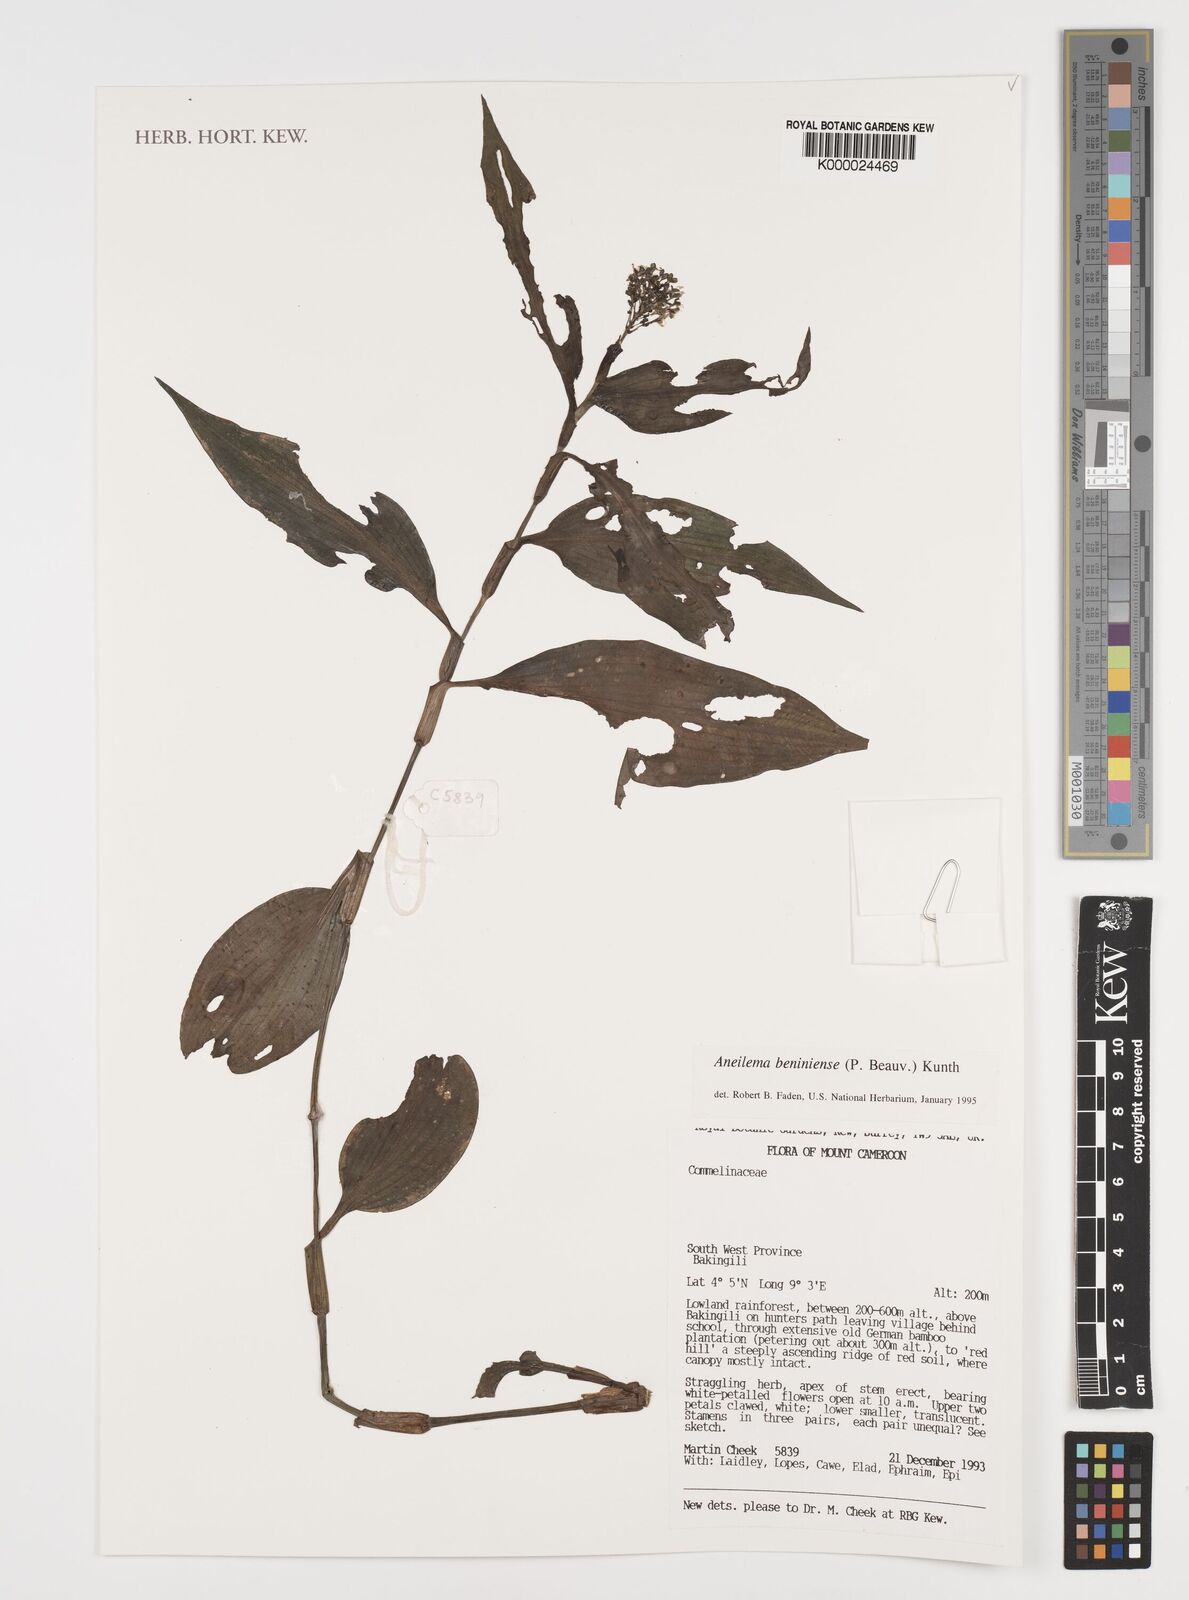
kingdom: Plantae
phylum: Tracheophyta
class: Liliopsida
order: Commelinales
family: Commelinaceae
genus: Aneilema
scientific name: Aneilema beniniense
